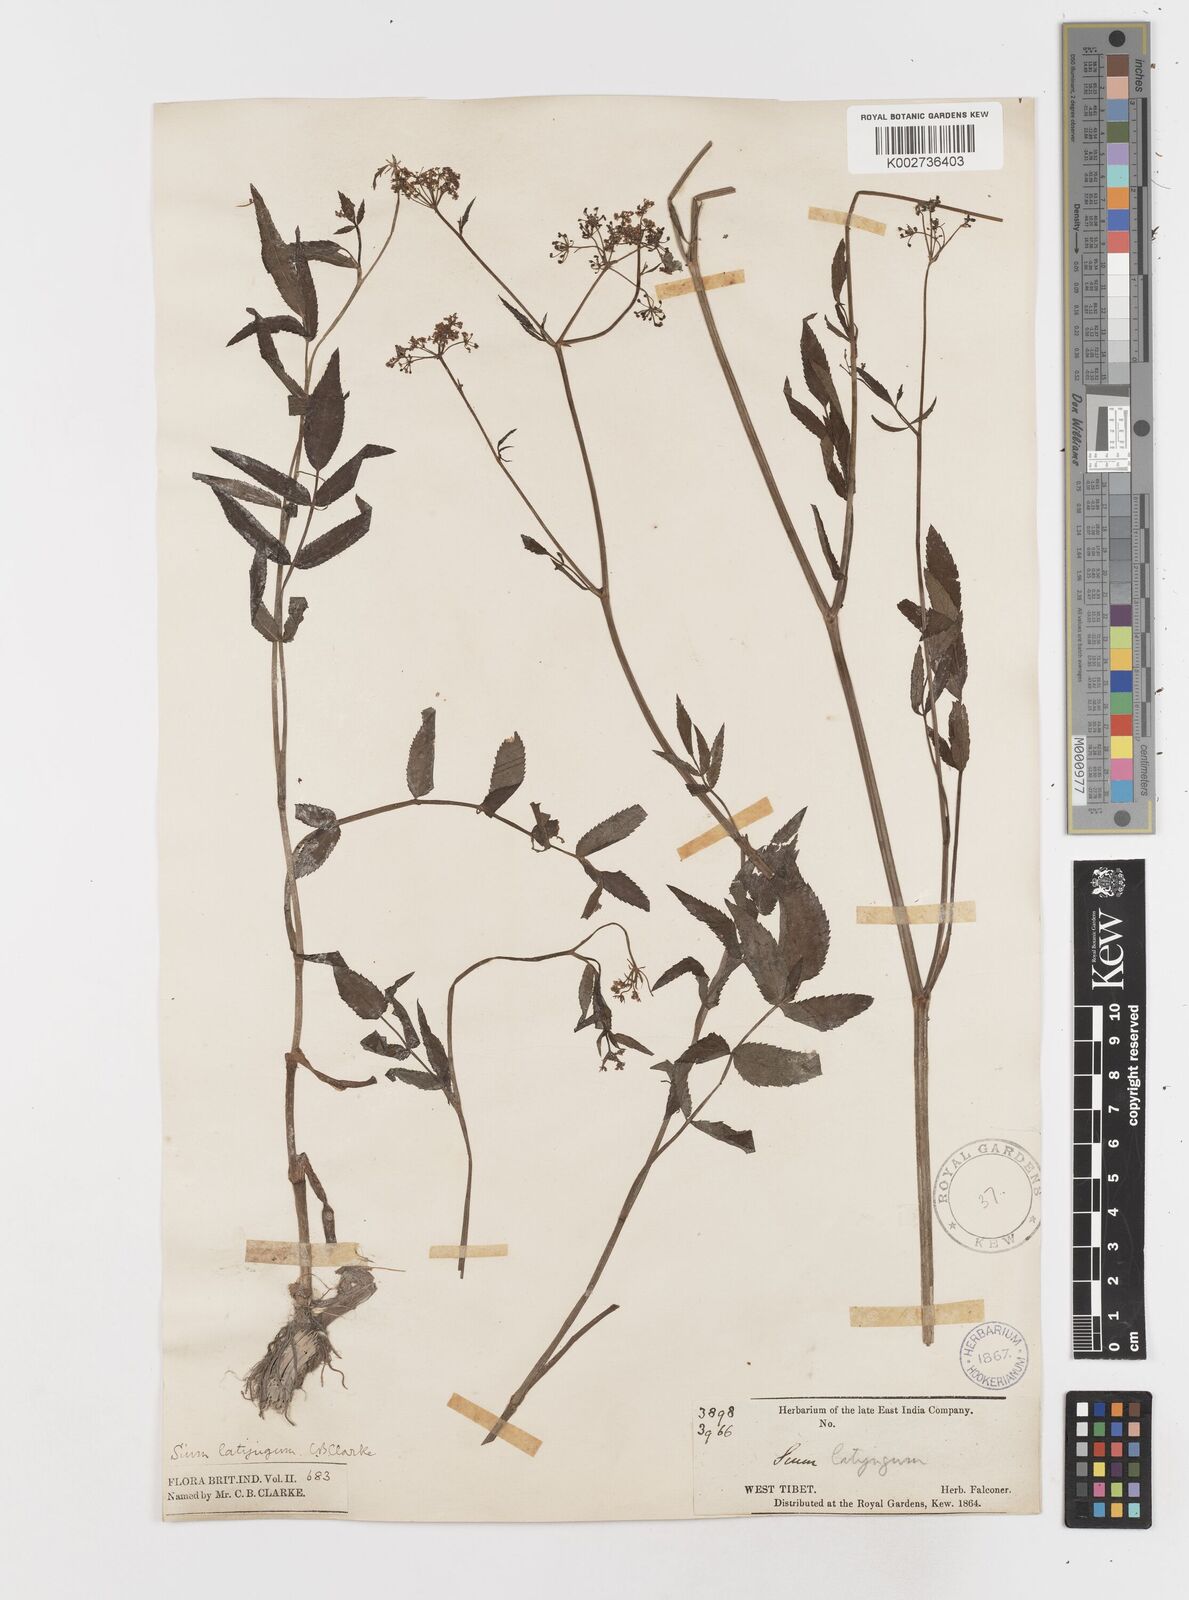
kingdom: Plantae
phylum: Tracheophyta
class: Magnoliopsida
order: Apiales
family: Apiaceae
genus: Sium
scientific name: Sium sisarum
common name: Skirret
